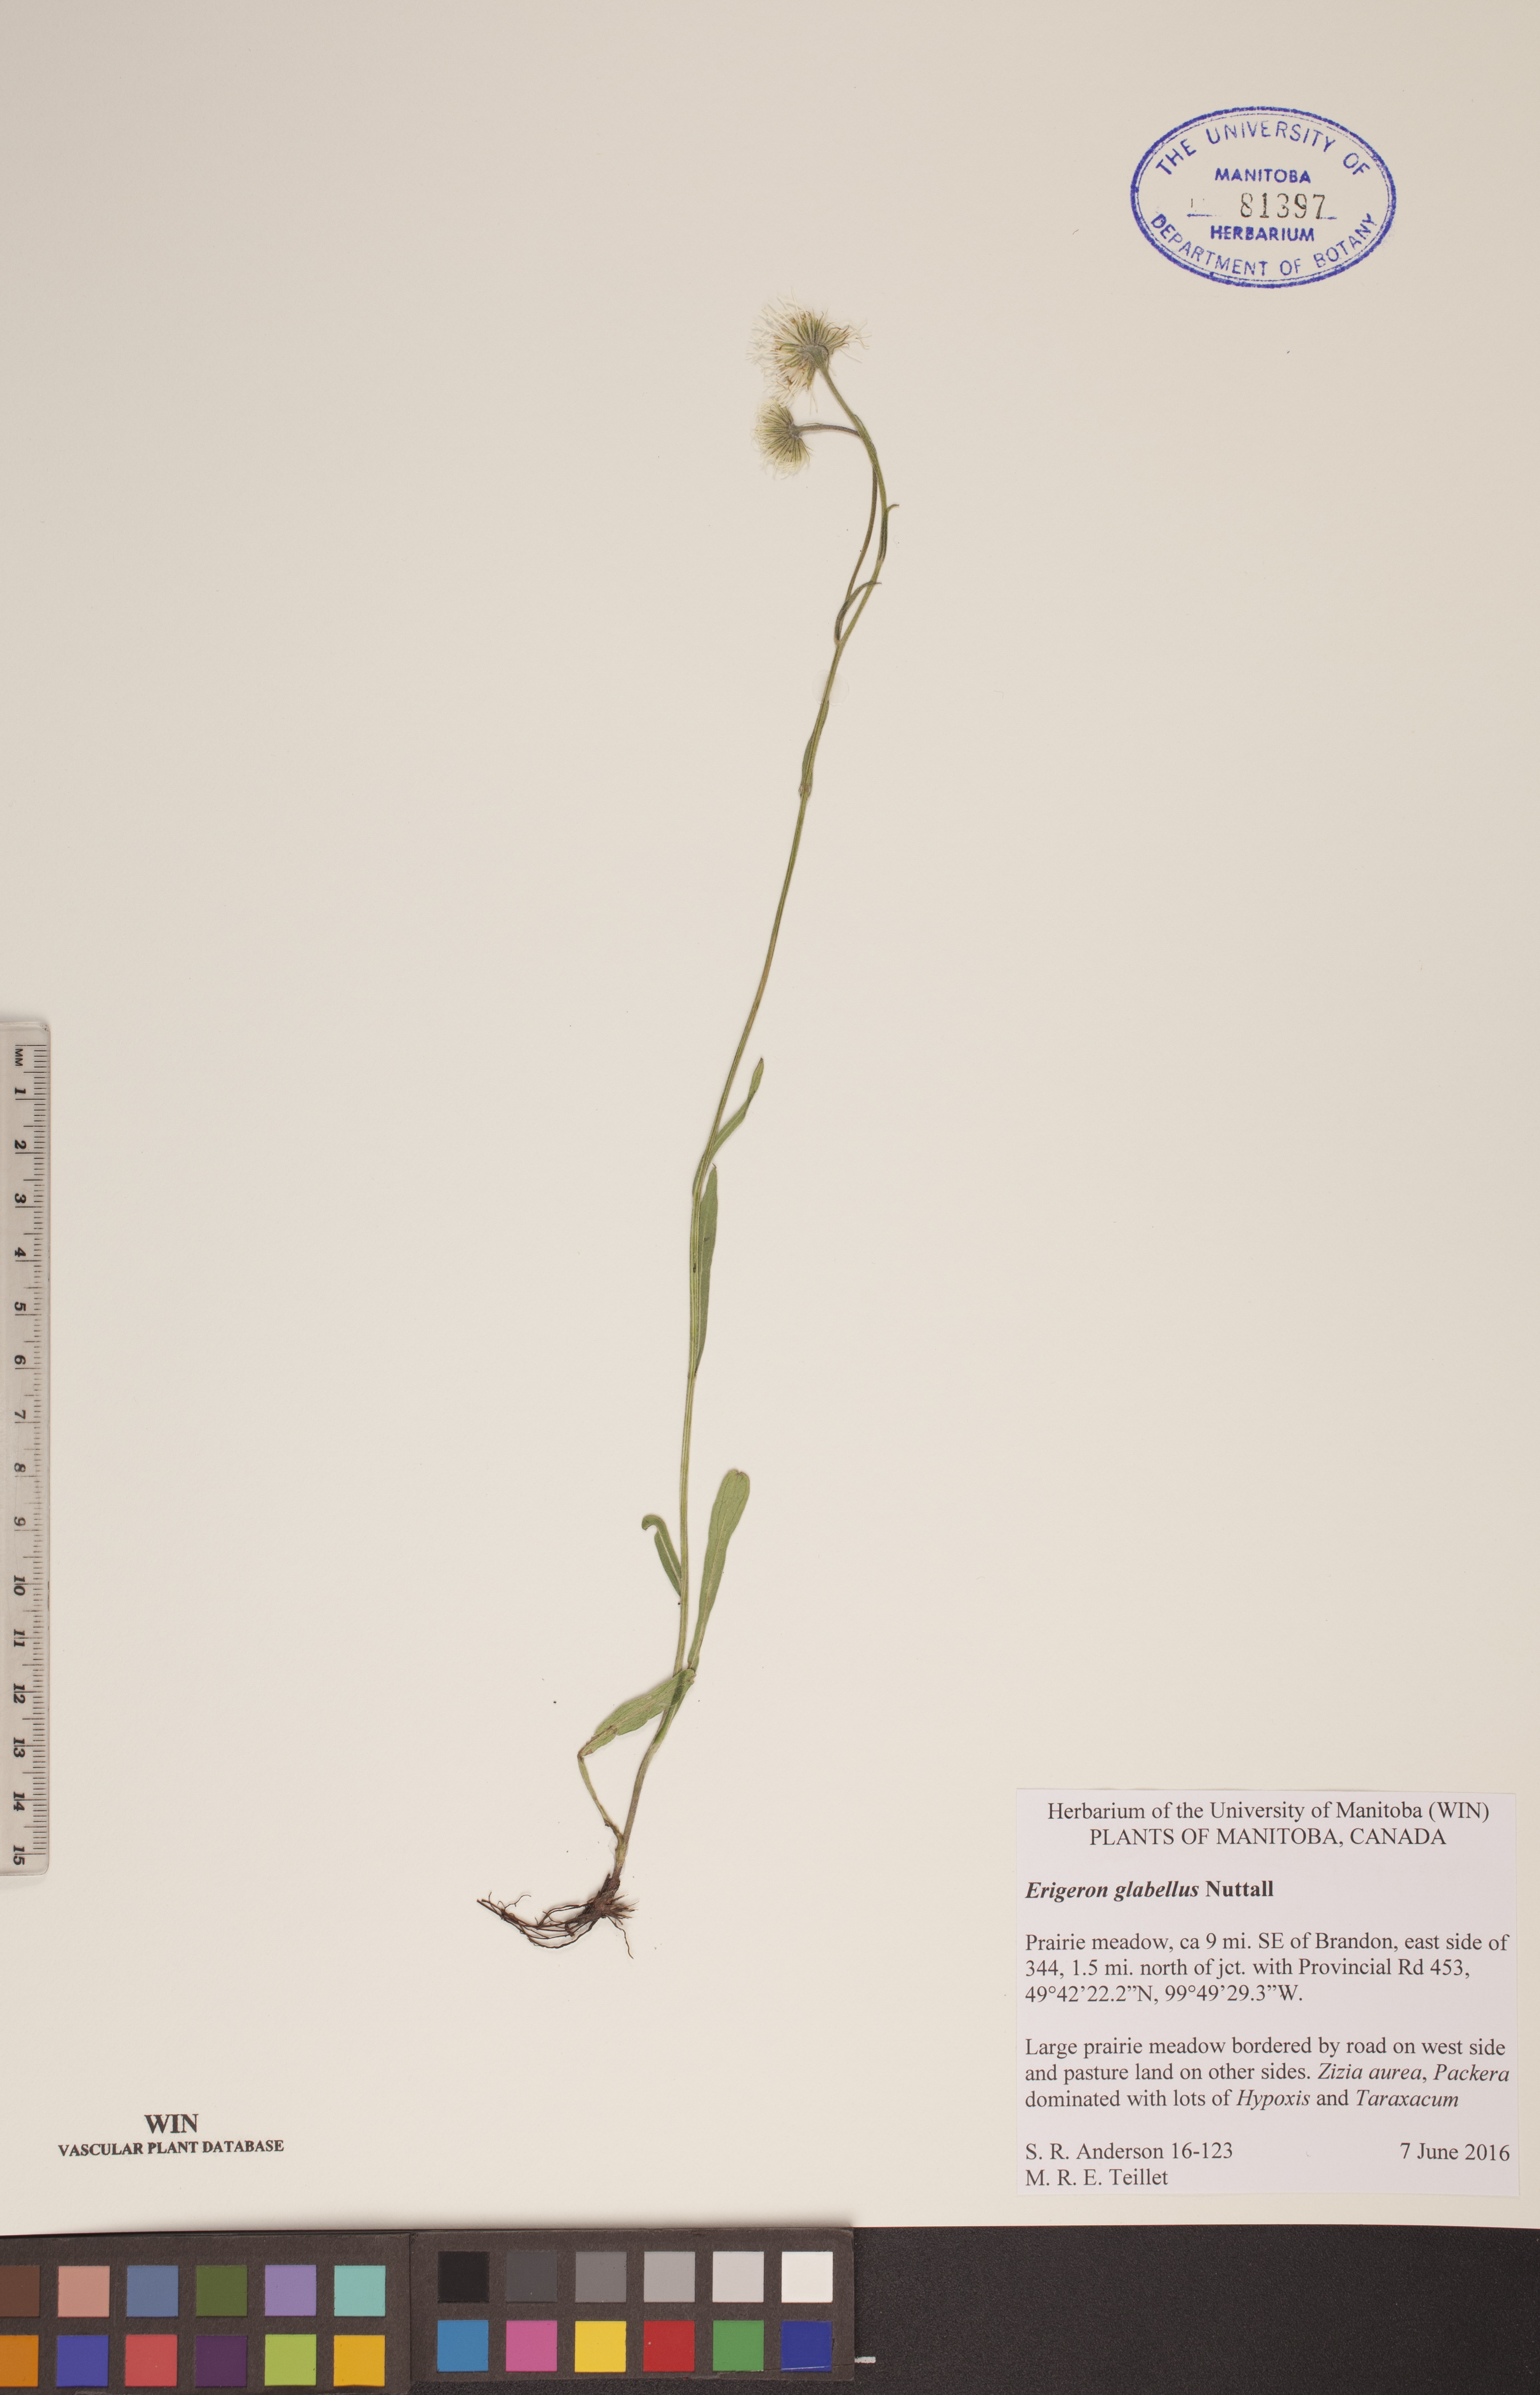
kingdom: Plantae
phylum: Tracheophyta
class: Magnoliopsida
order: Asterales
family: Asteraceae
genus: Erigeron
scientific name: Erigeron glabellus
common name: Smooth fleabane
